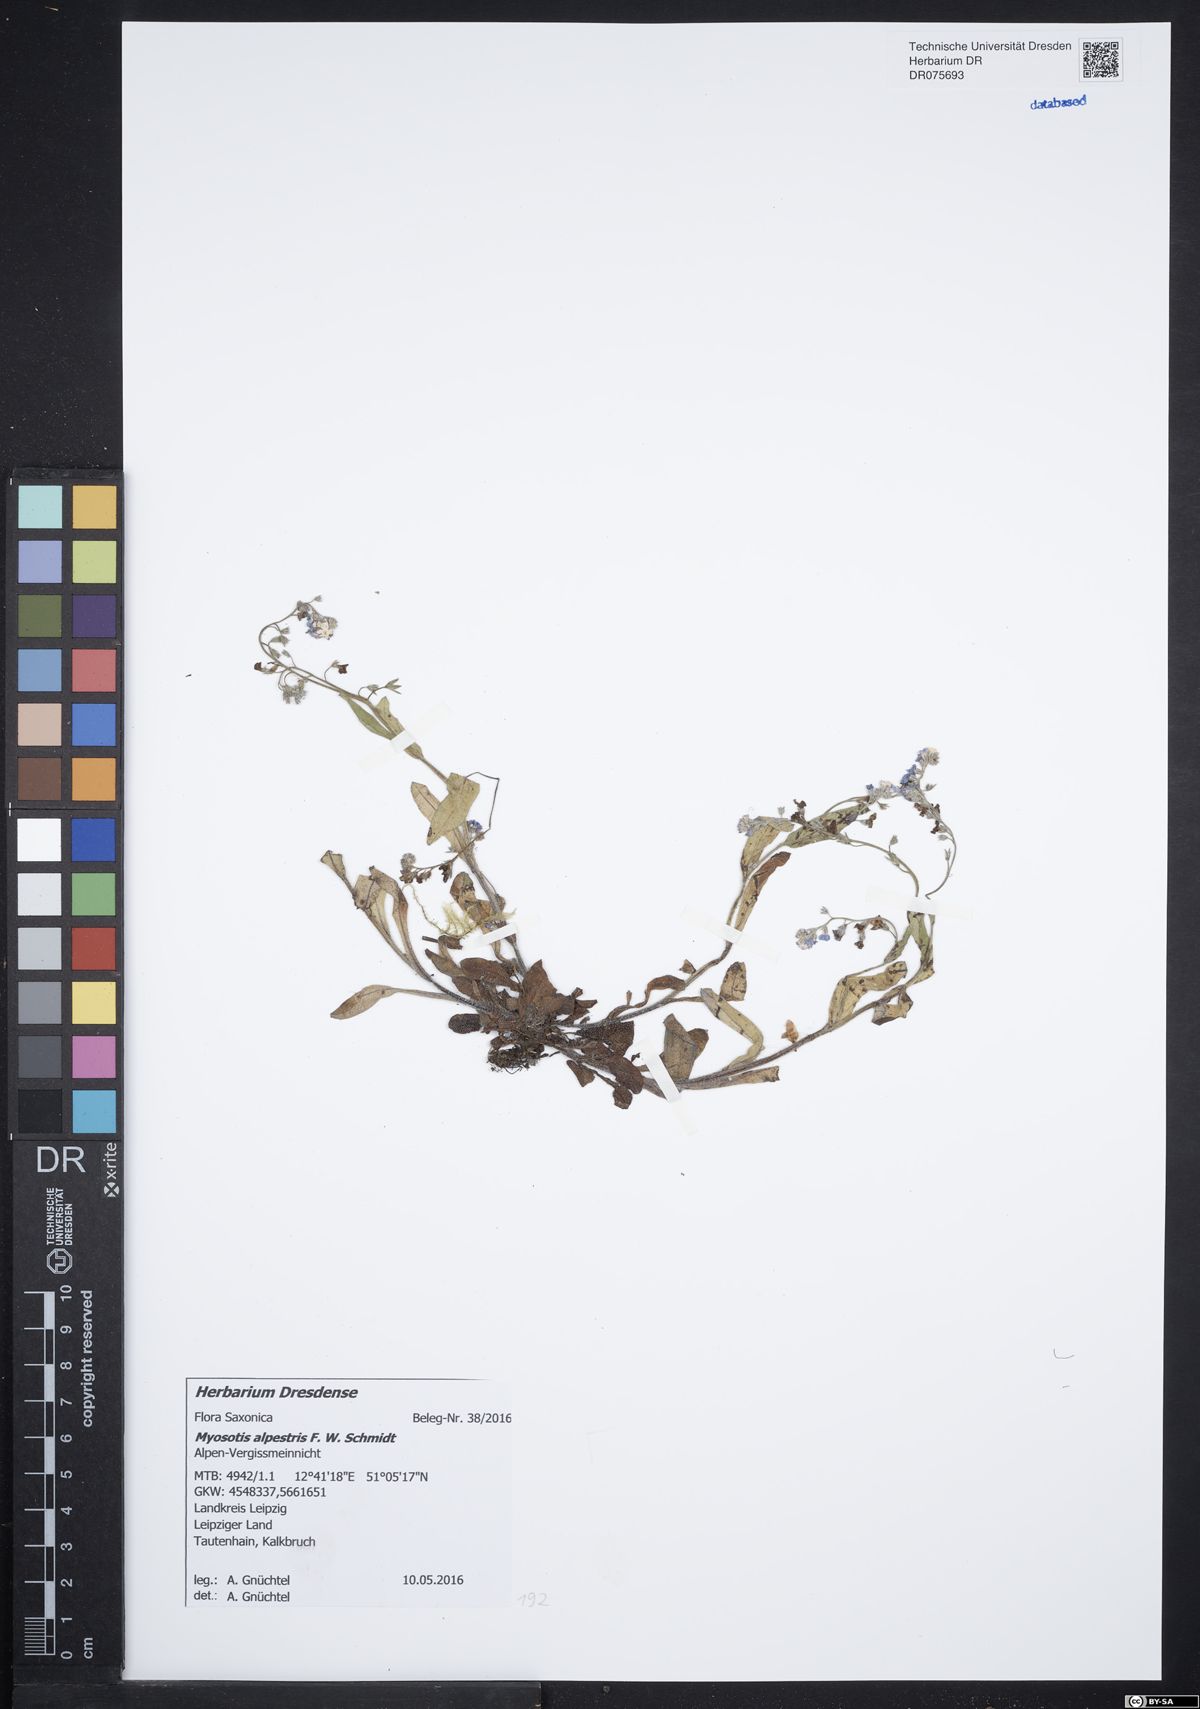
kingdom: Plantae
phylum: Tracheophyta
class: Magnoliopsida
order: Boraginales
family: Boraginaceae
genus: Myosotis
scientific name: Myosotis alpestris
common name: Alpine forget-me-not
